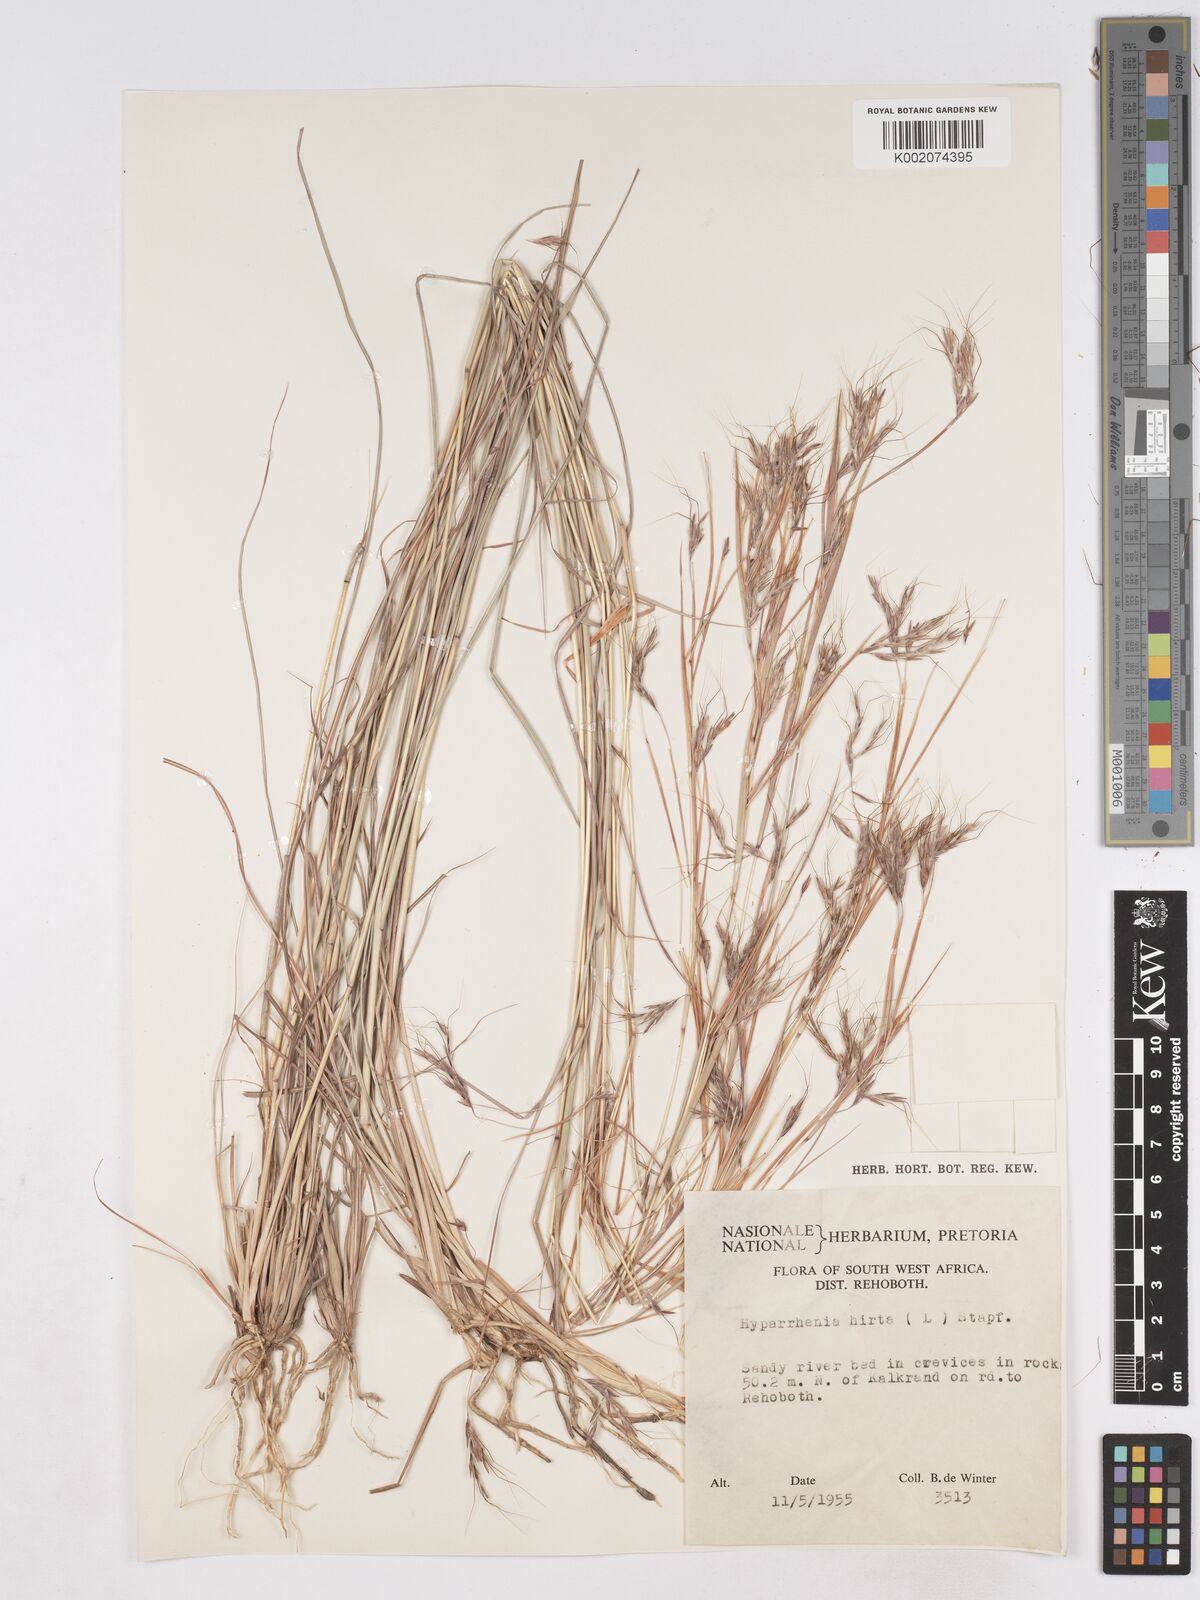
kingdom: Plantae
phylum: Tracheophyta
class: Liliopsida
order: Poales
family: Poaceae
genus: Hyparrhenia
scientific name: Hyparrhenia hirta
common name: Thatching grass
